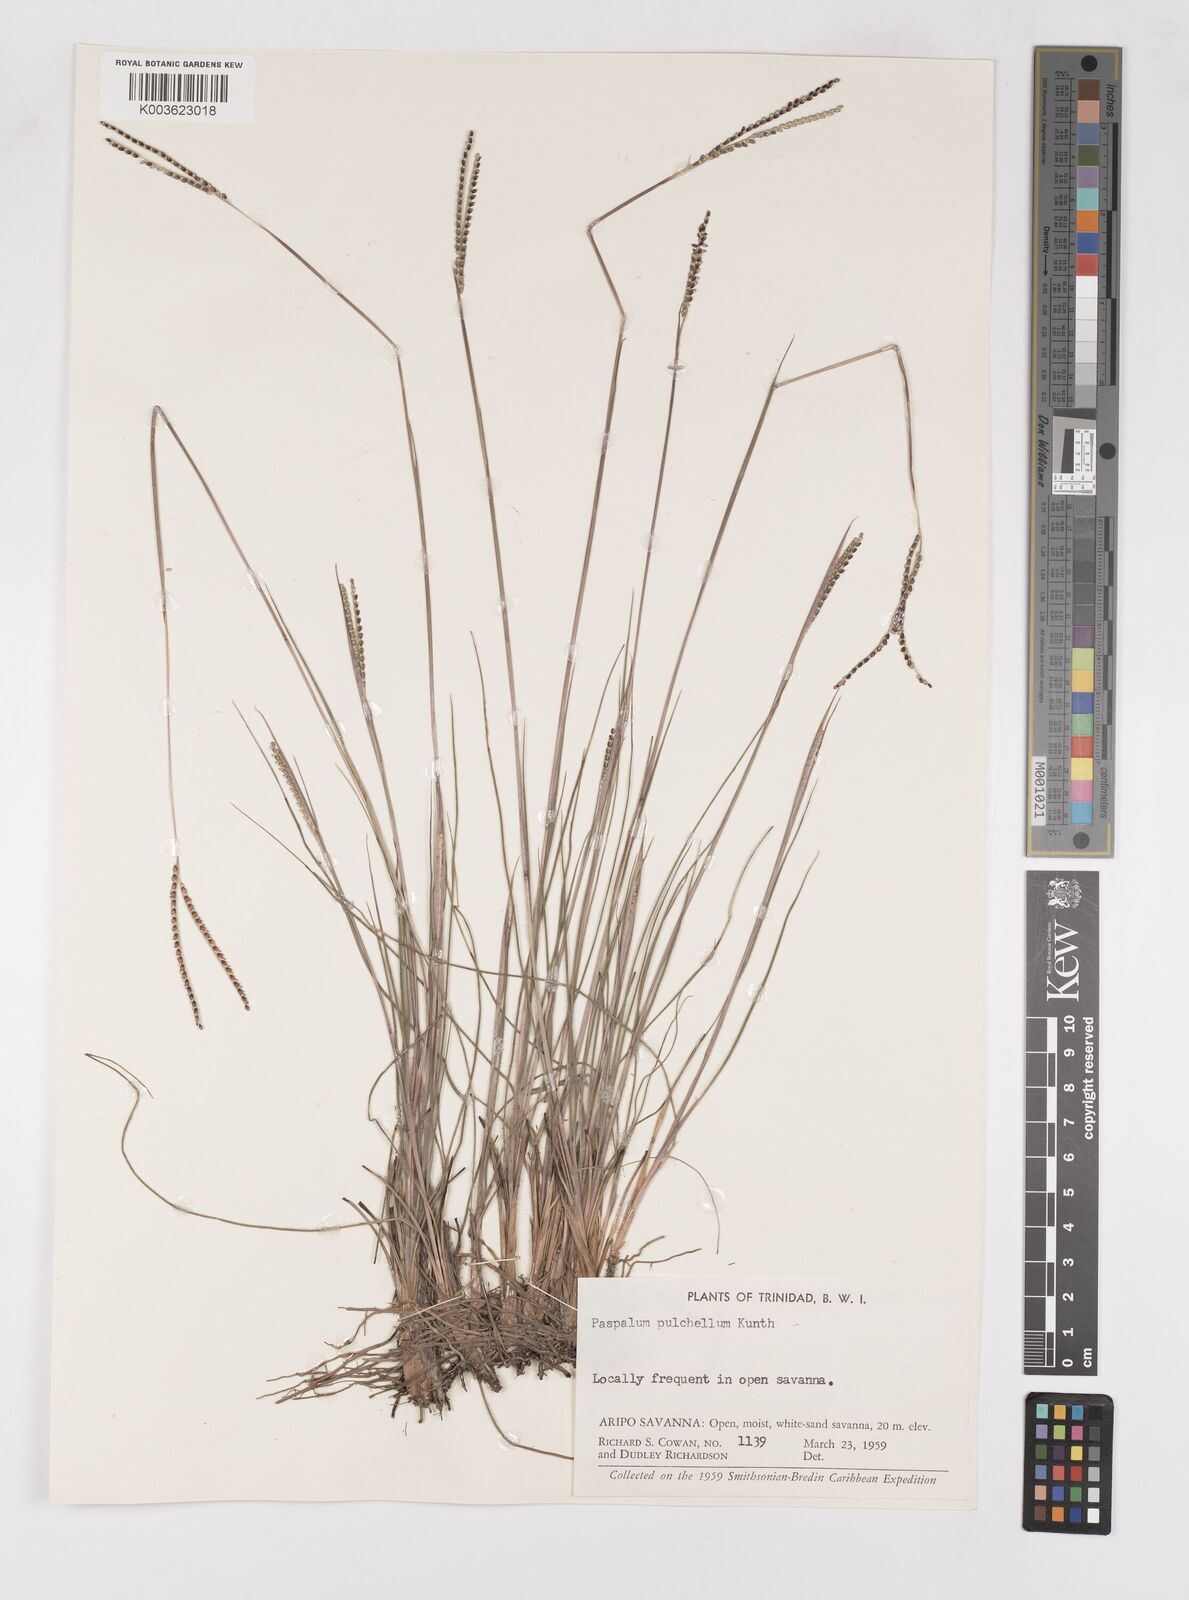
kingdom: Plantae
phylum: Tracheophyta
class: Liliopsida
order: Poales
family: Poaceae
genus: Paspalum
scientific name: Paspalum pulchellum
